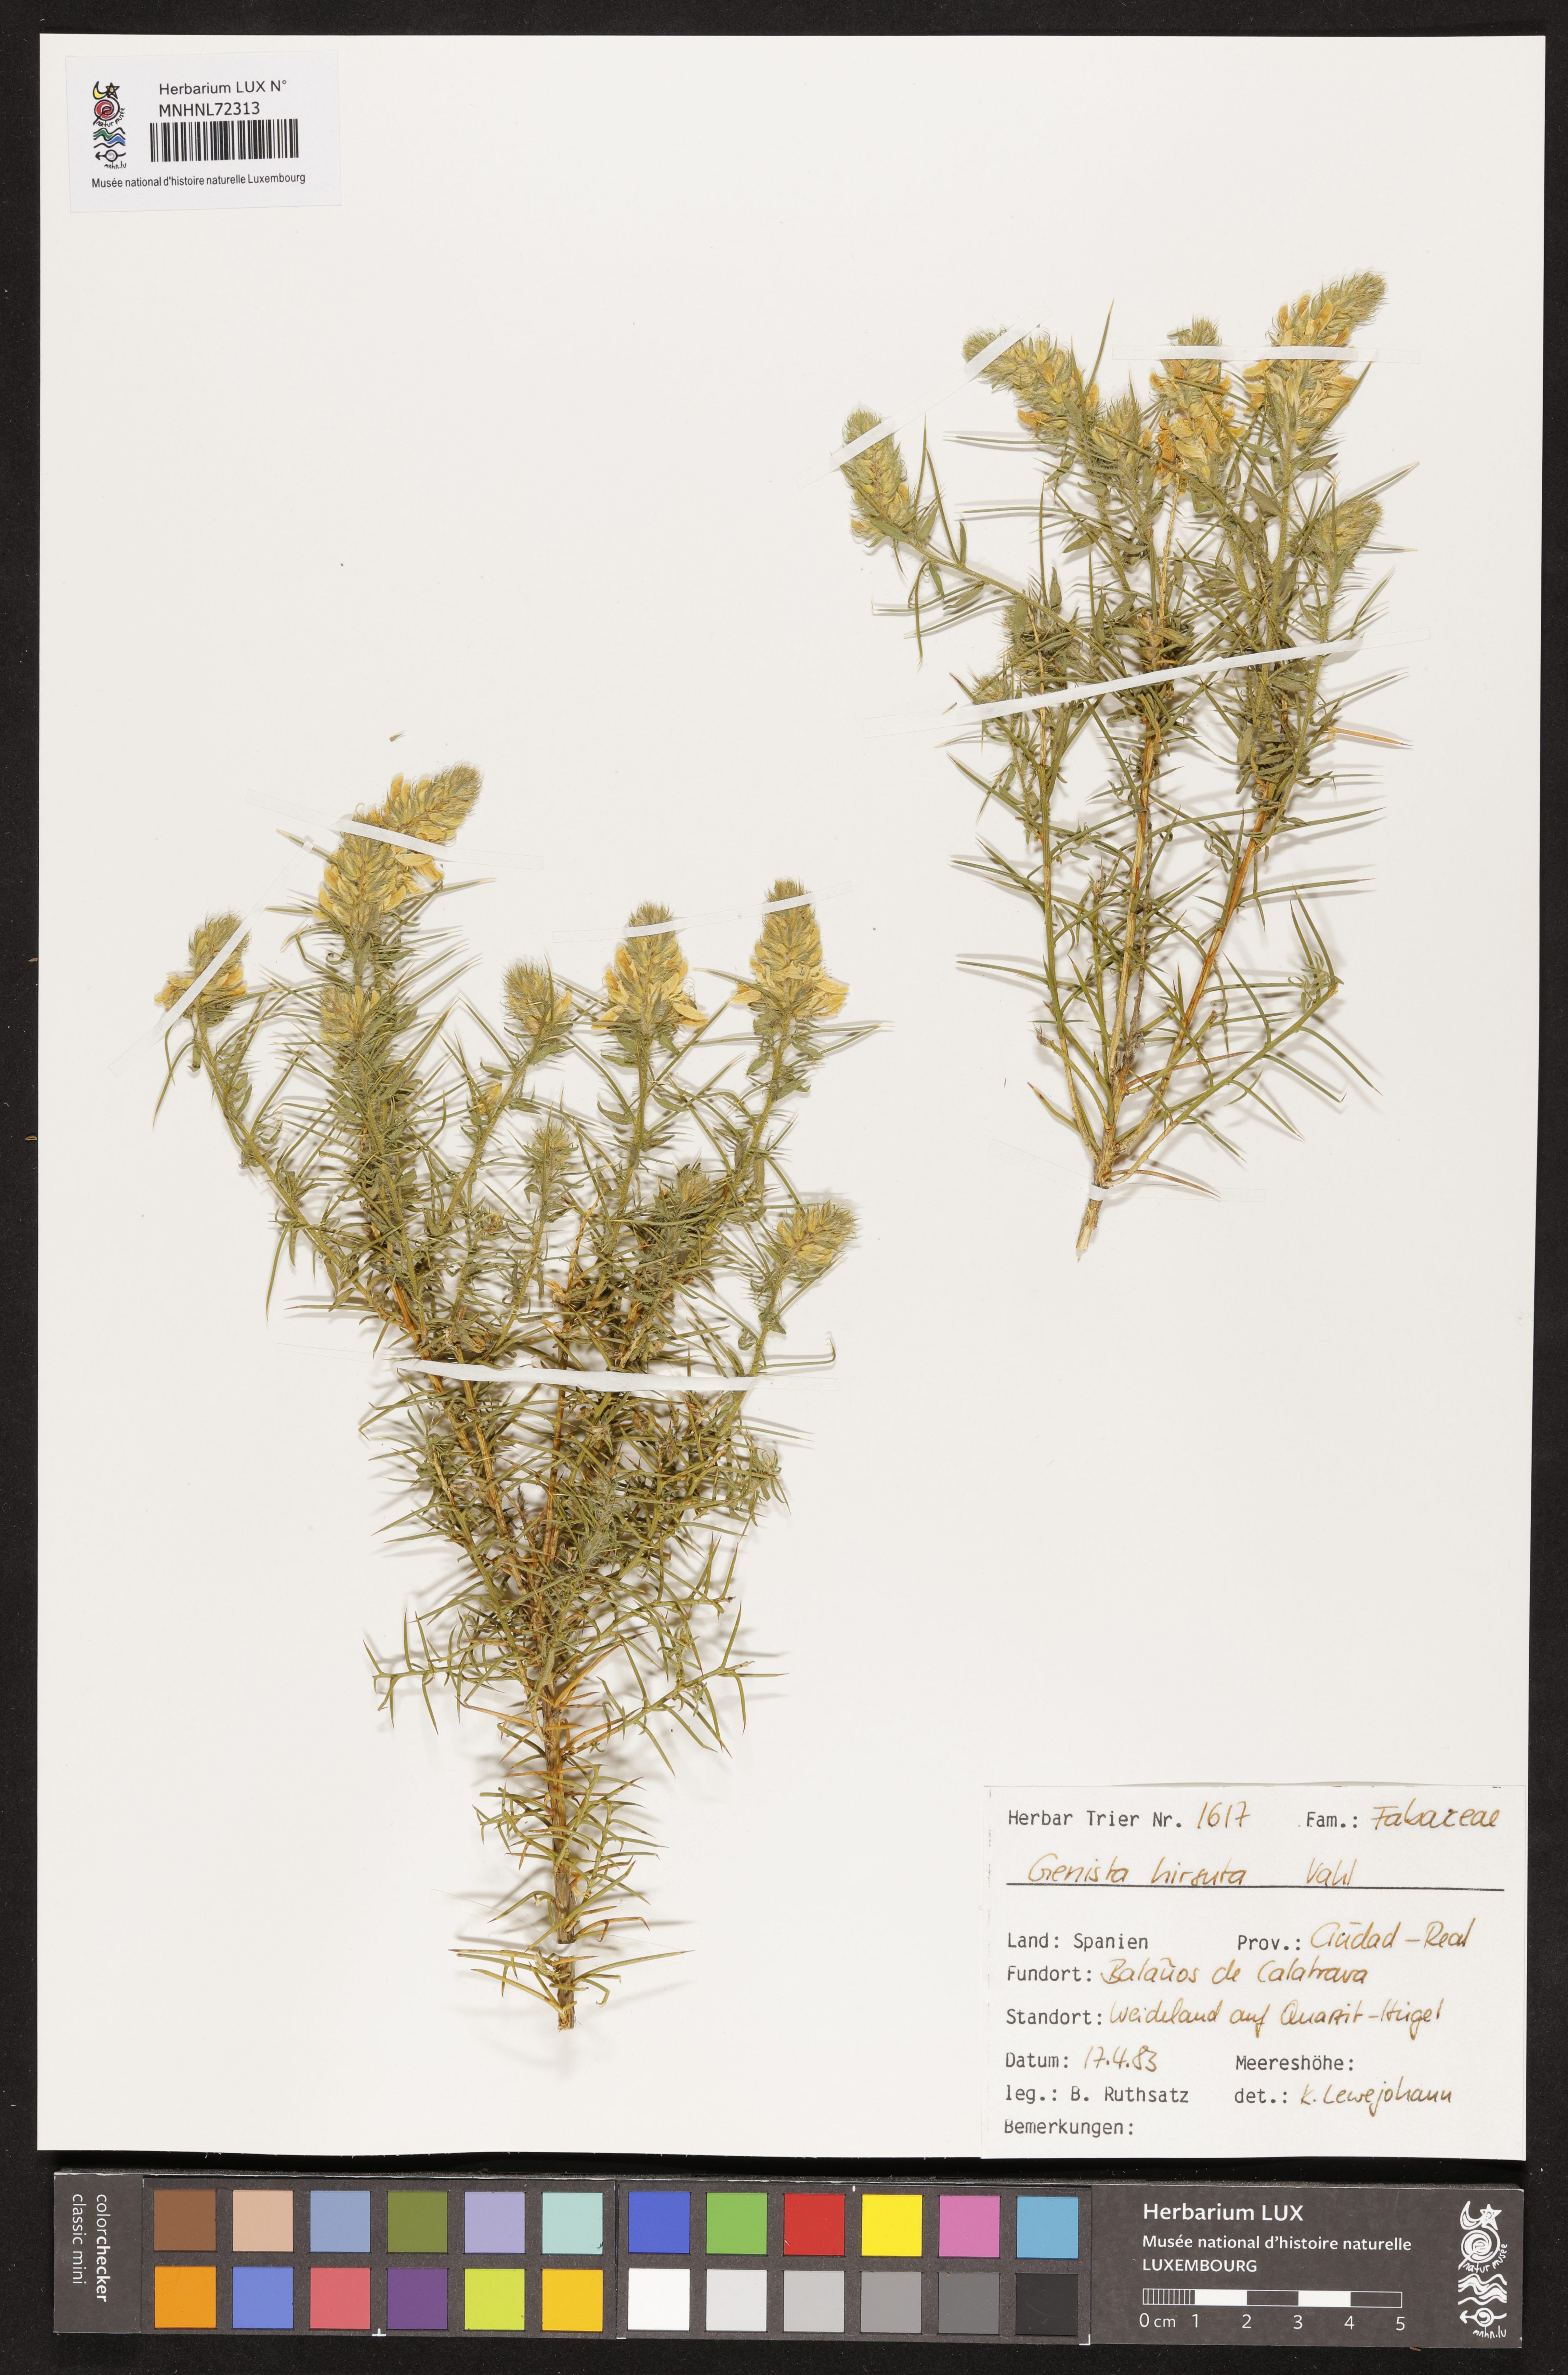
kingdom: Plantae
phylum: Tracheophyta
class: Magnoliopsida
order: Fabales
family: Fabaceae
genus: Genista
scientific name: Genista hirsuta
